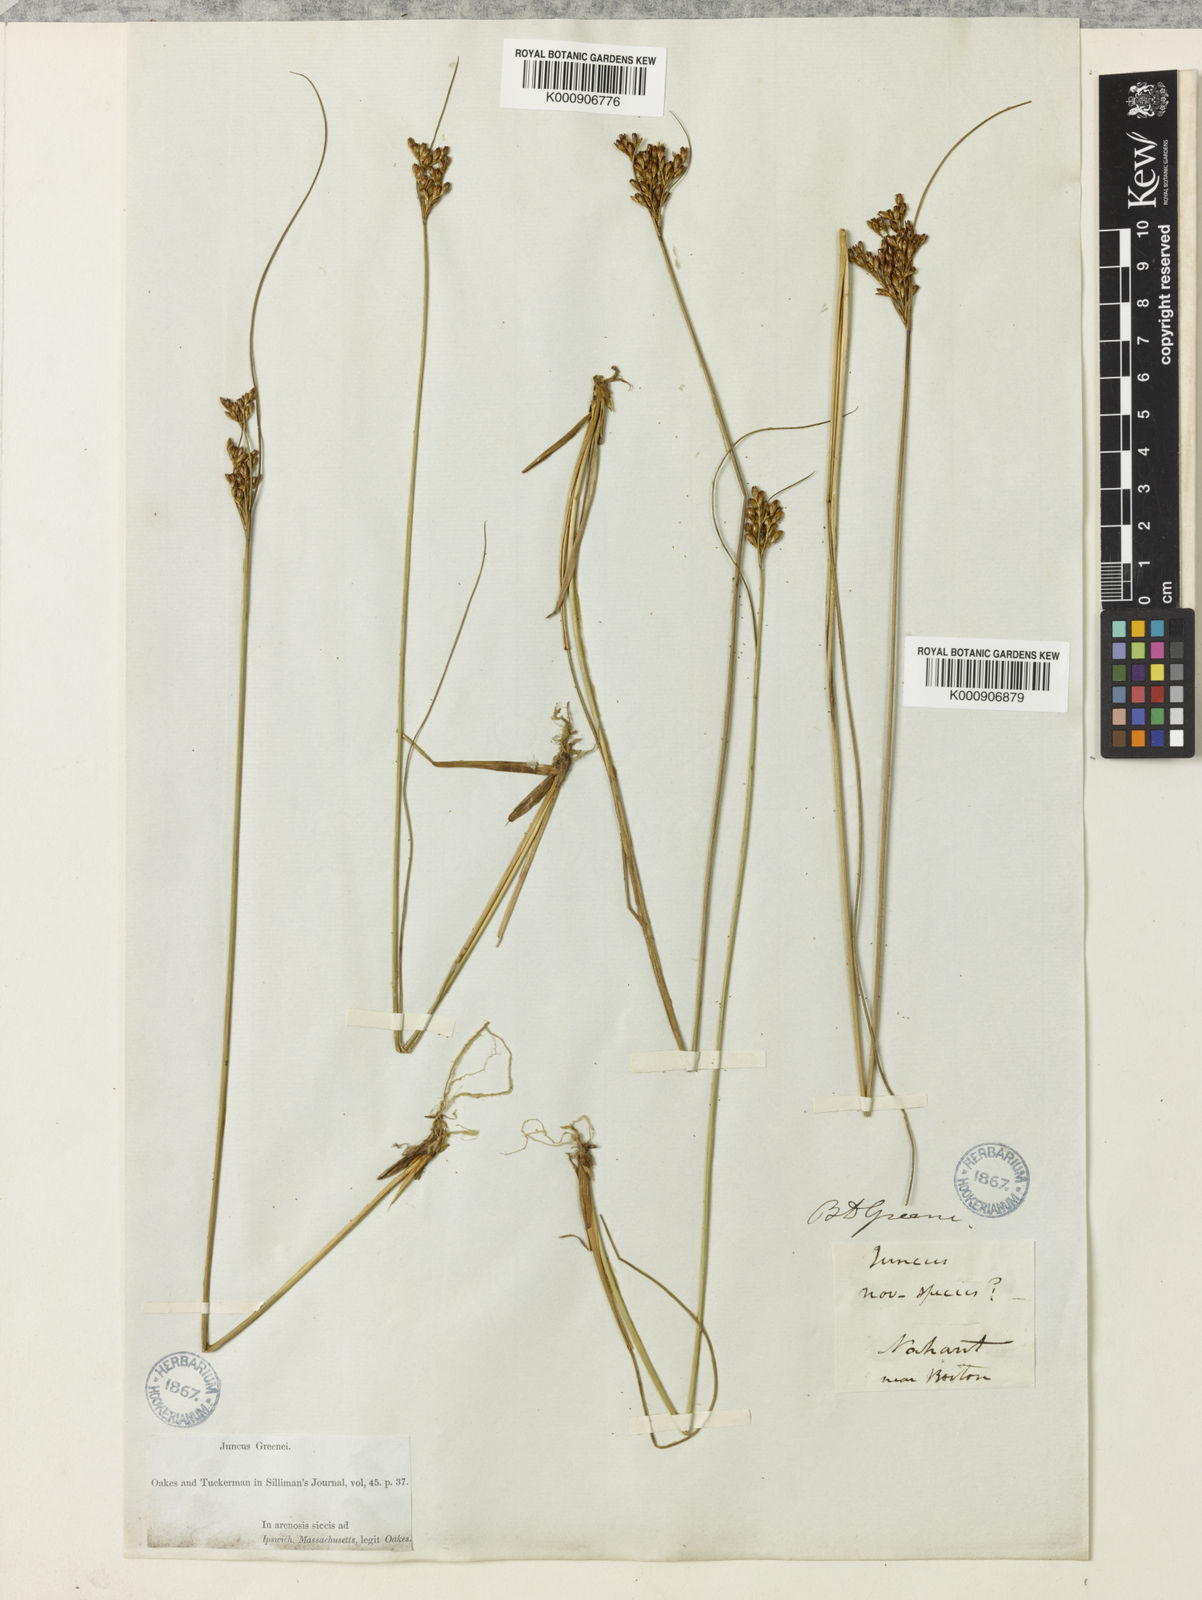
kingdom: Plantae
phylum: Tracheophyta
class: Liliopsida
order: Poales
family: Juncaceae
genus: Juncus
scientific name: Juncus greenei
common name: Greene's rush
